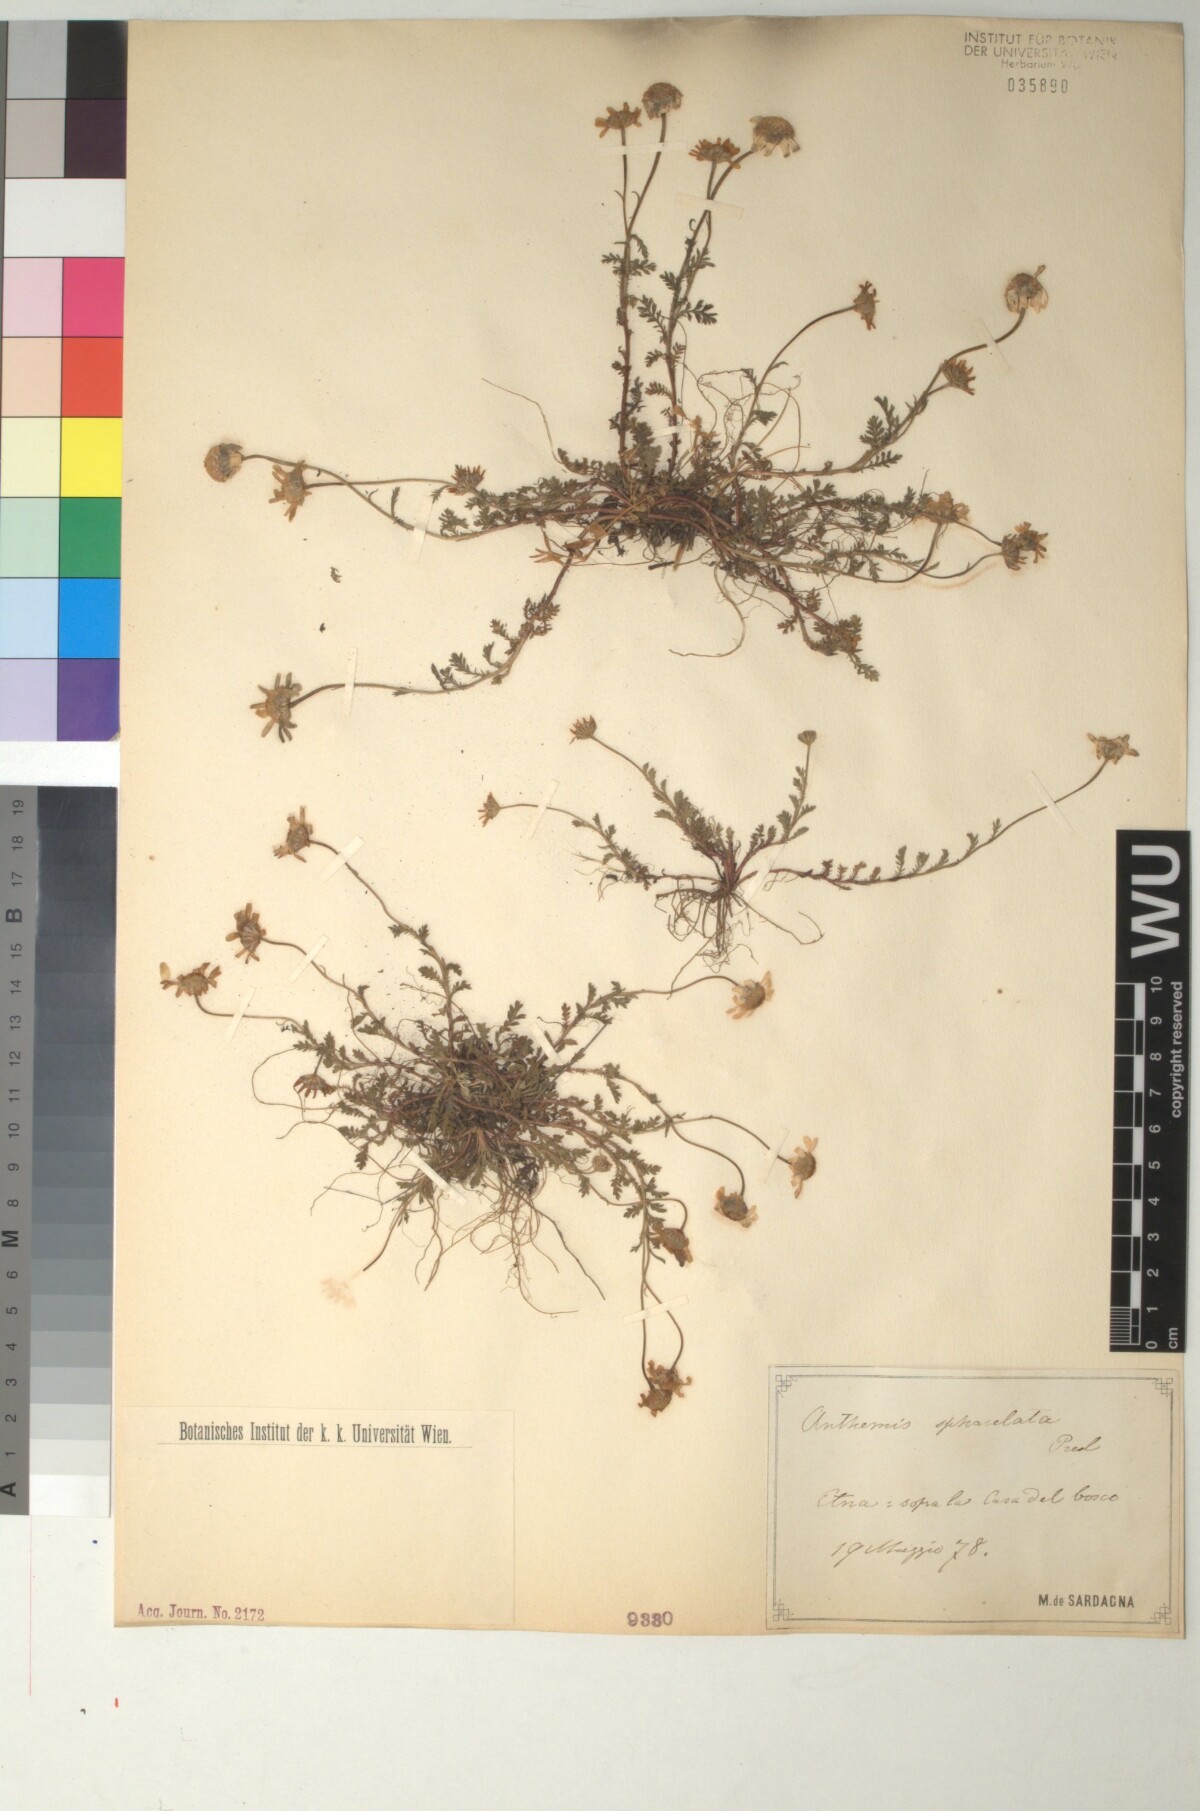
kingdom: Plantae
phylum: Tracheophyta
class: Magnoliopsida
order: Asterales
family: Asteraceae
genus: Anthemis
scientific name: Anthemis arvensis
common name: Corn chamomile
